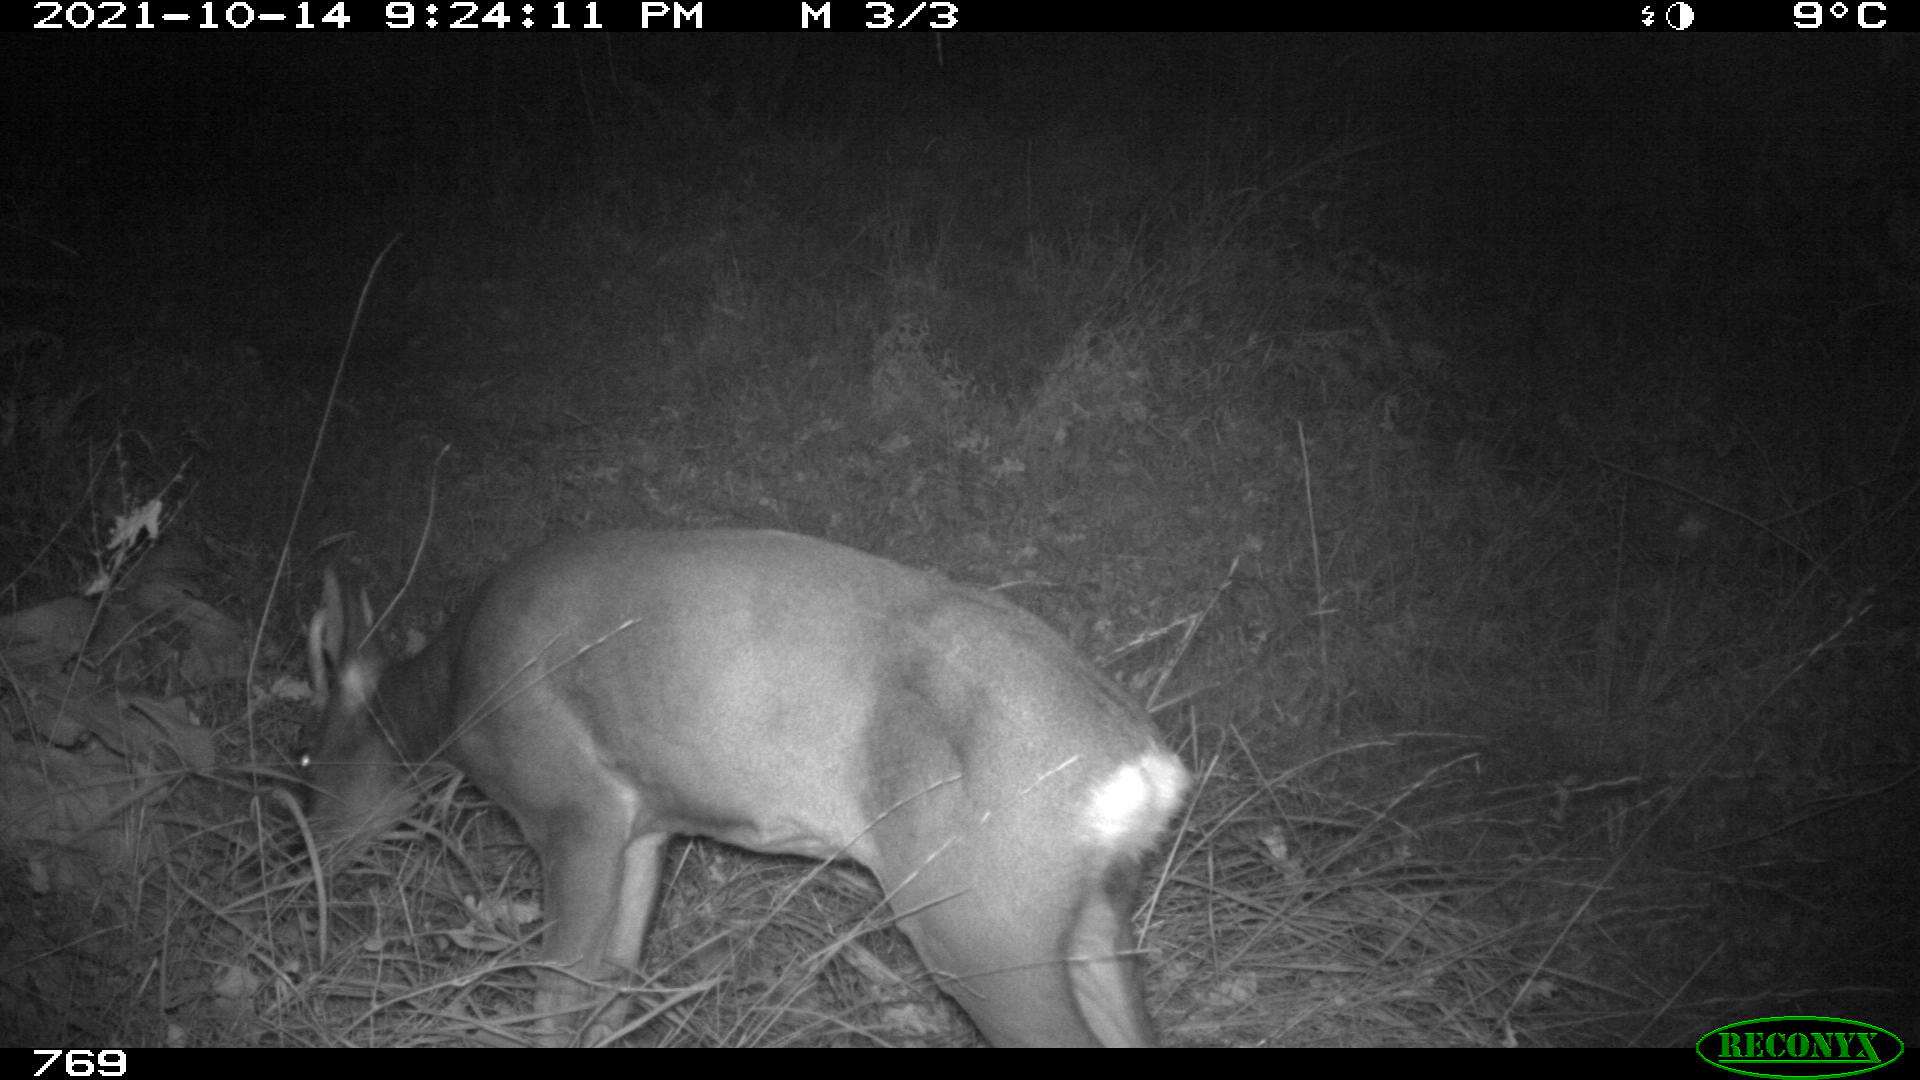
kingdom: Animalia
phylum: Chordata
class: Mammalia
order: Artiodactyla
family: Cervidae
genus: Capreolus
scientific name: Capreolus capreolus
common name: Western roe deer
